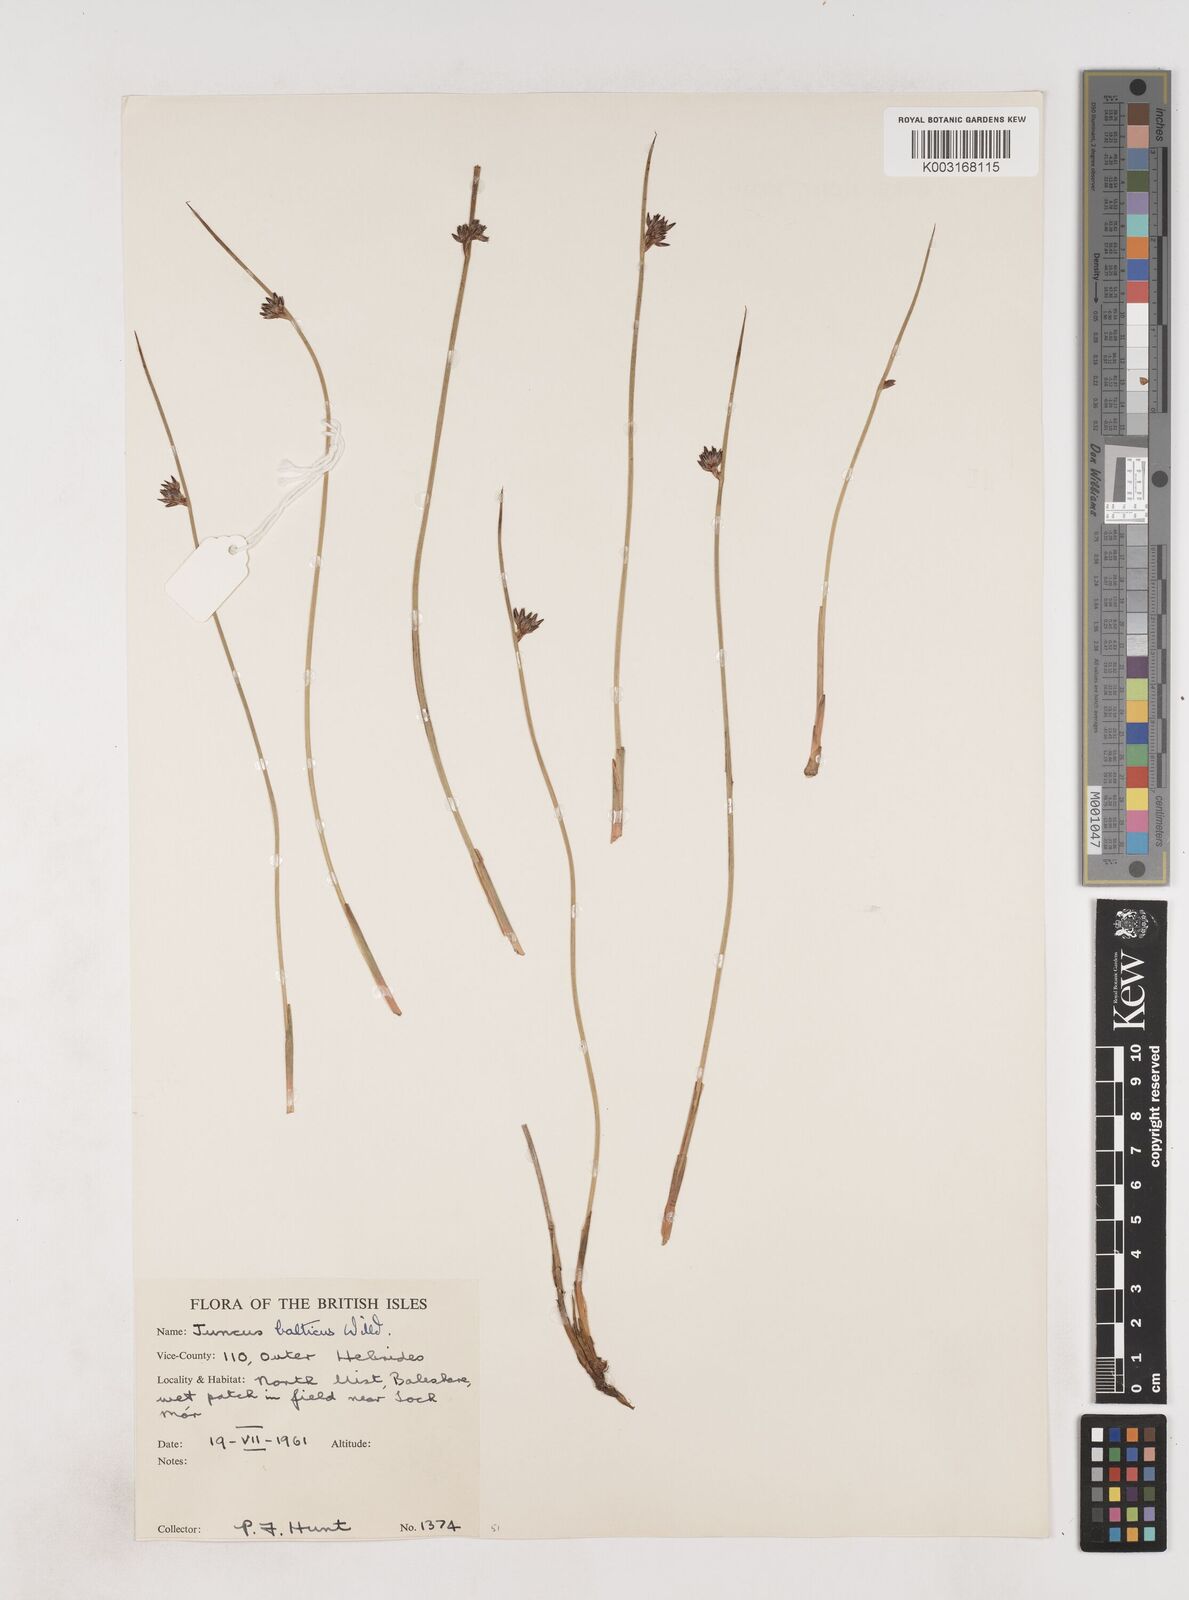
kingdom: Plantae
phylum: Tracheophyta
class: Liliopsida
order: Poales
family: Juncaceae
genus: Juncus
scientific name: Juncus balticus
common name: Baltic rush
